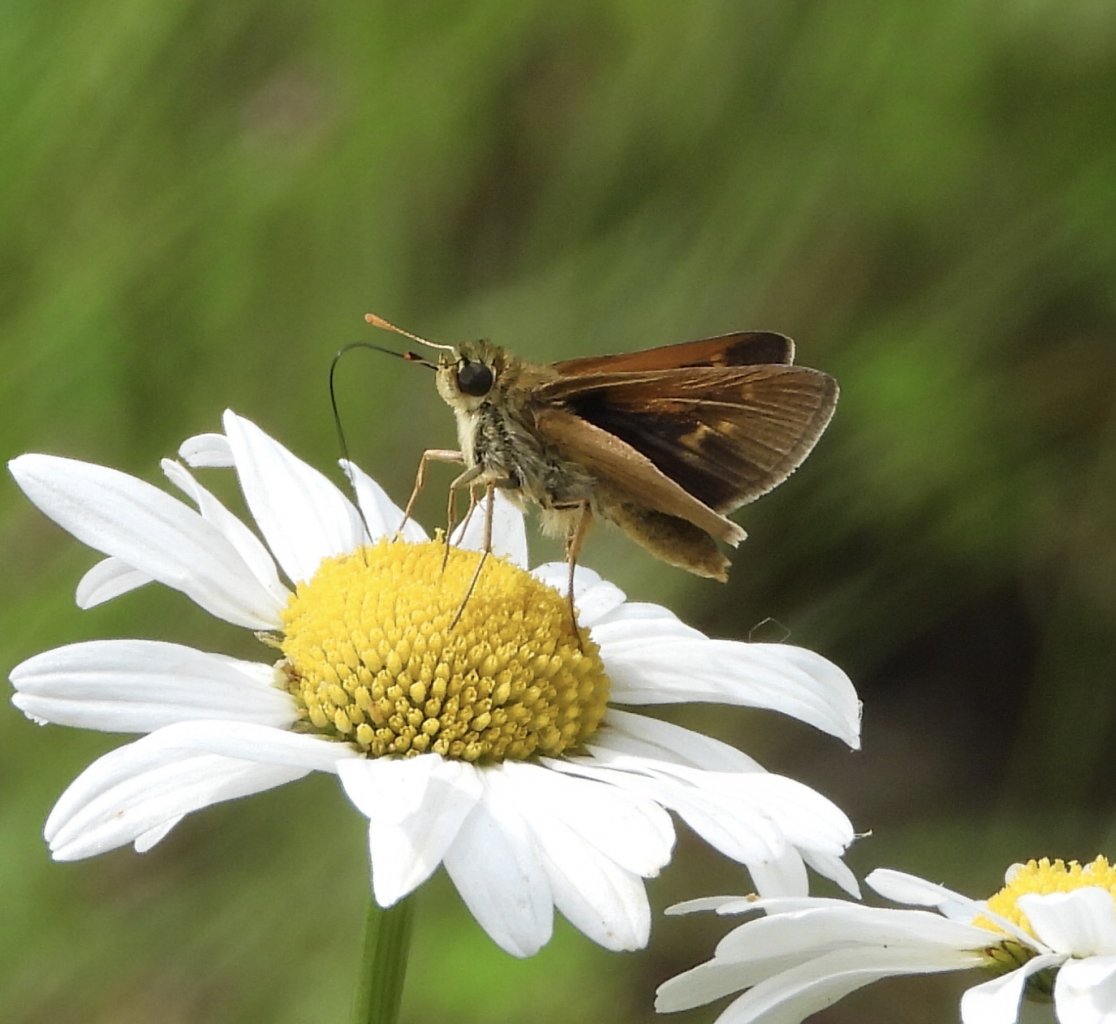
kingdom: Animalia
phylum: Arthropoda
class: Insecta
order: Lepidoptera
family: Hesperiidae
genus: Polites
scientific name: Polites themistocles
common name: Tawny-edged Skipper
